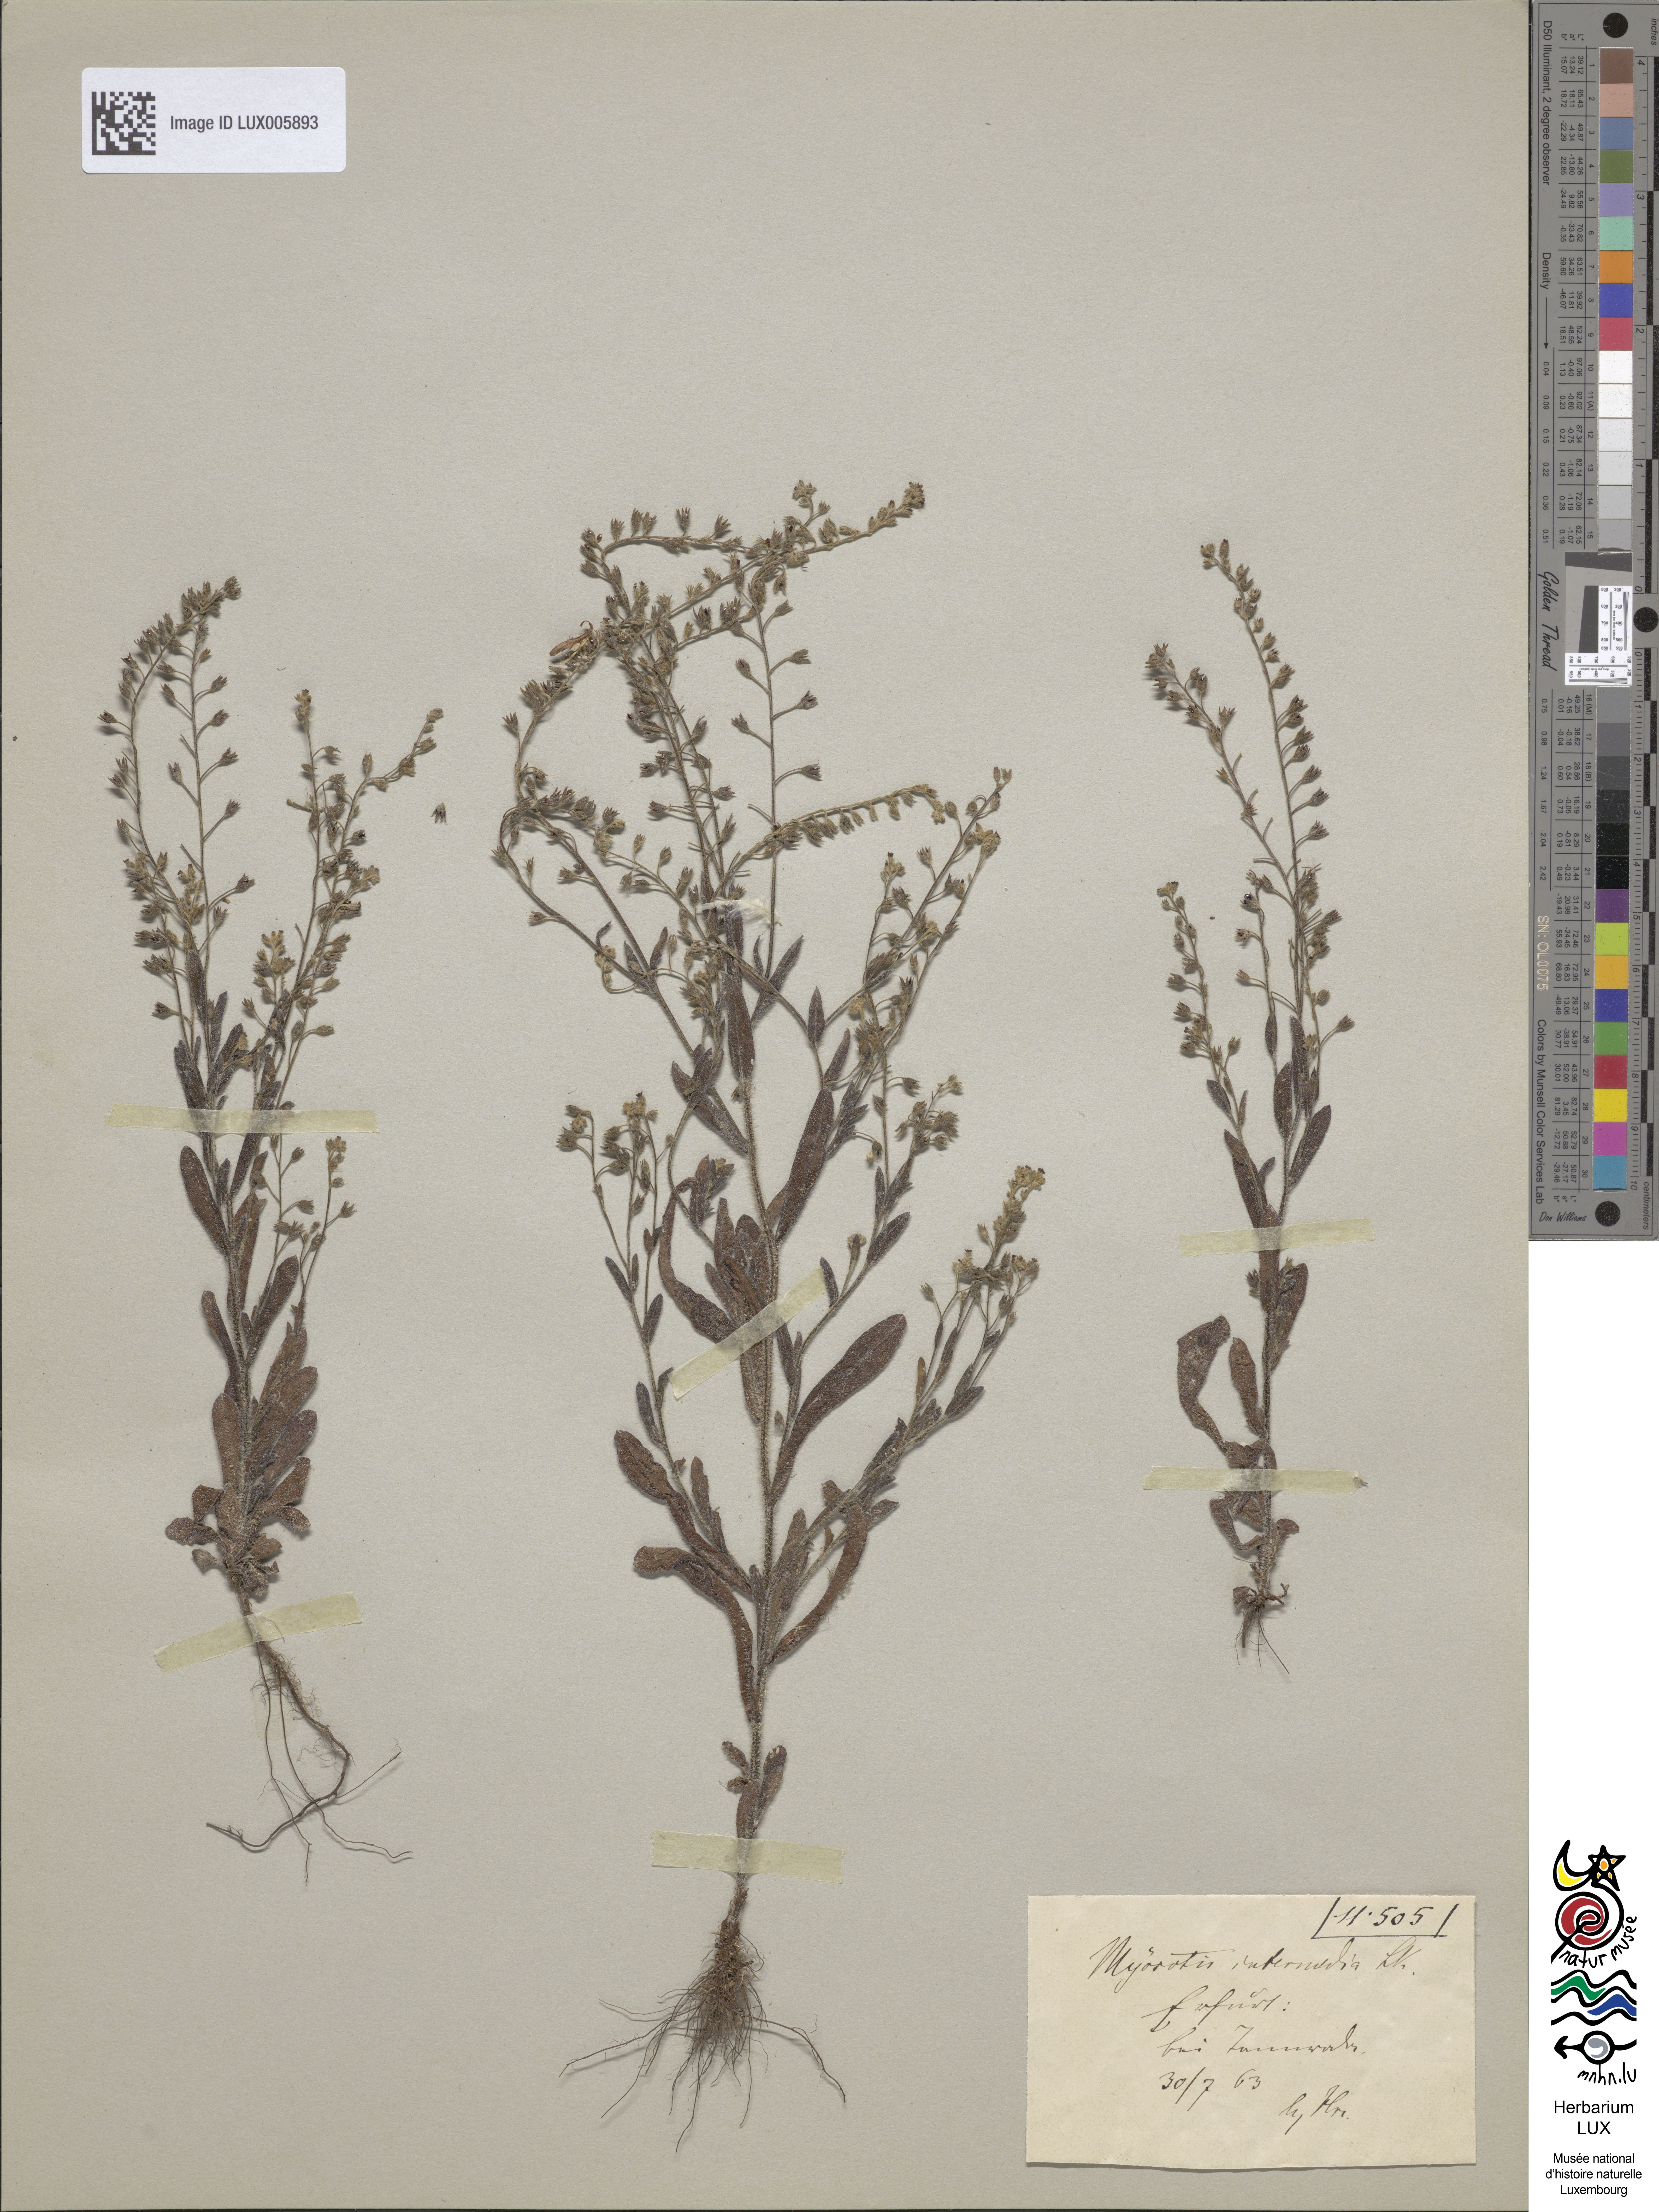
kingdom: Plantae
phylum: Tracheophyta
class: Magnoliopsida
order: Boraginales
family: Boraginaceae
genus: Myosotis
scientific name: Myosotis arvensis
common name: Field forget-me-not
